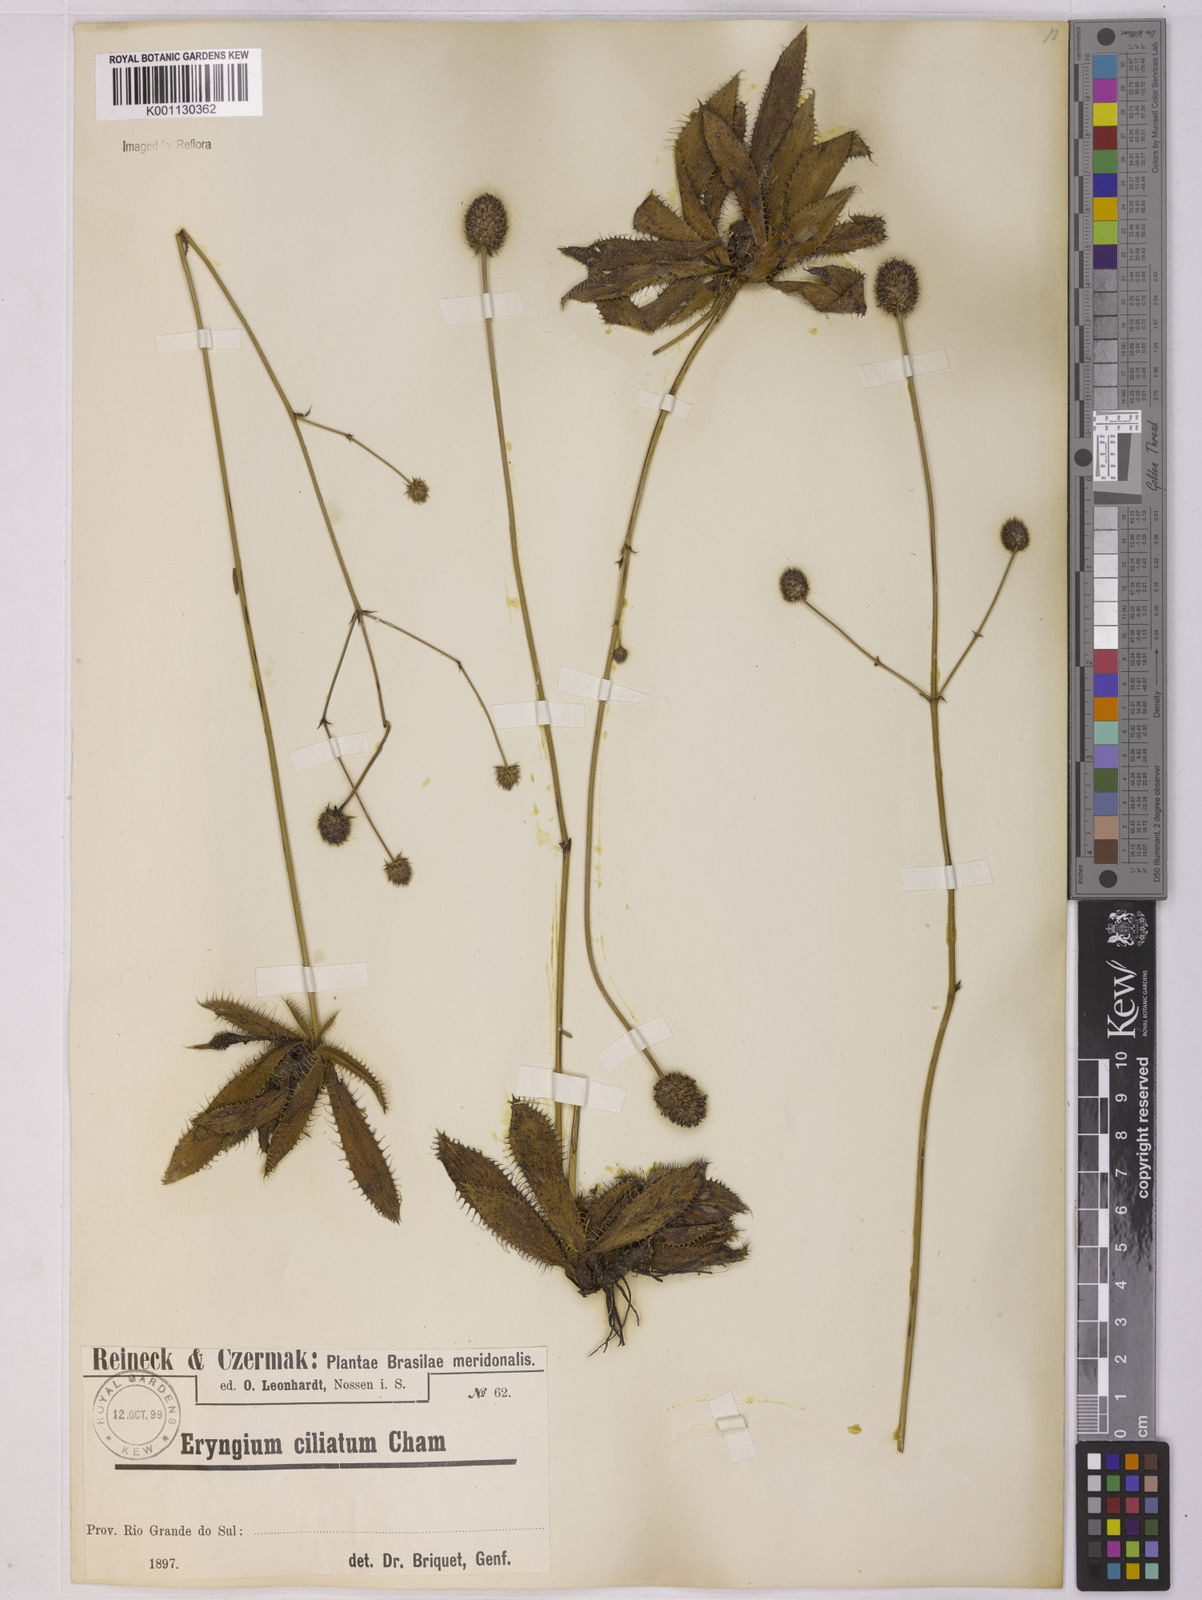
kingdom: Plantae
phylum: Tracheophyta
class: Magnoliopsida
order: Apiales
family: Apiaceae
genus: Eryngium
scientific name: Eryngium ciliatum
